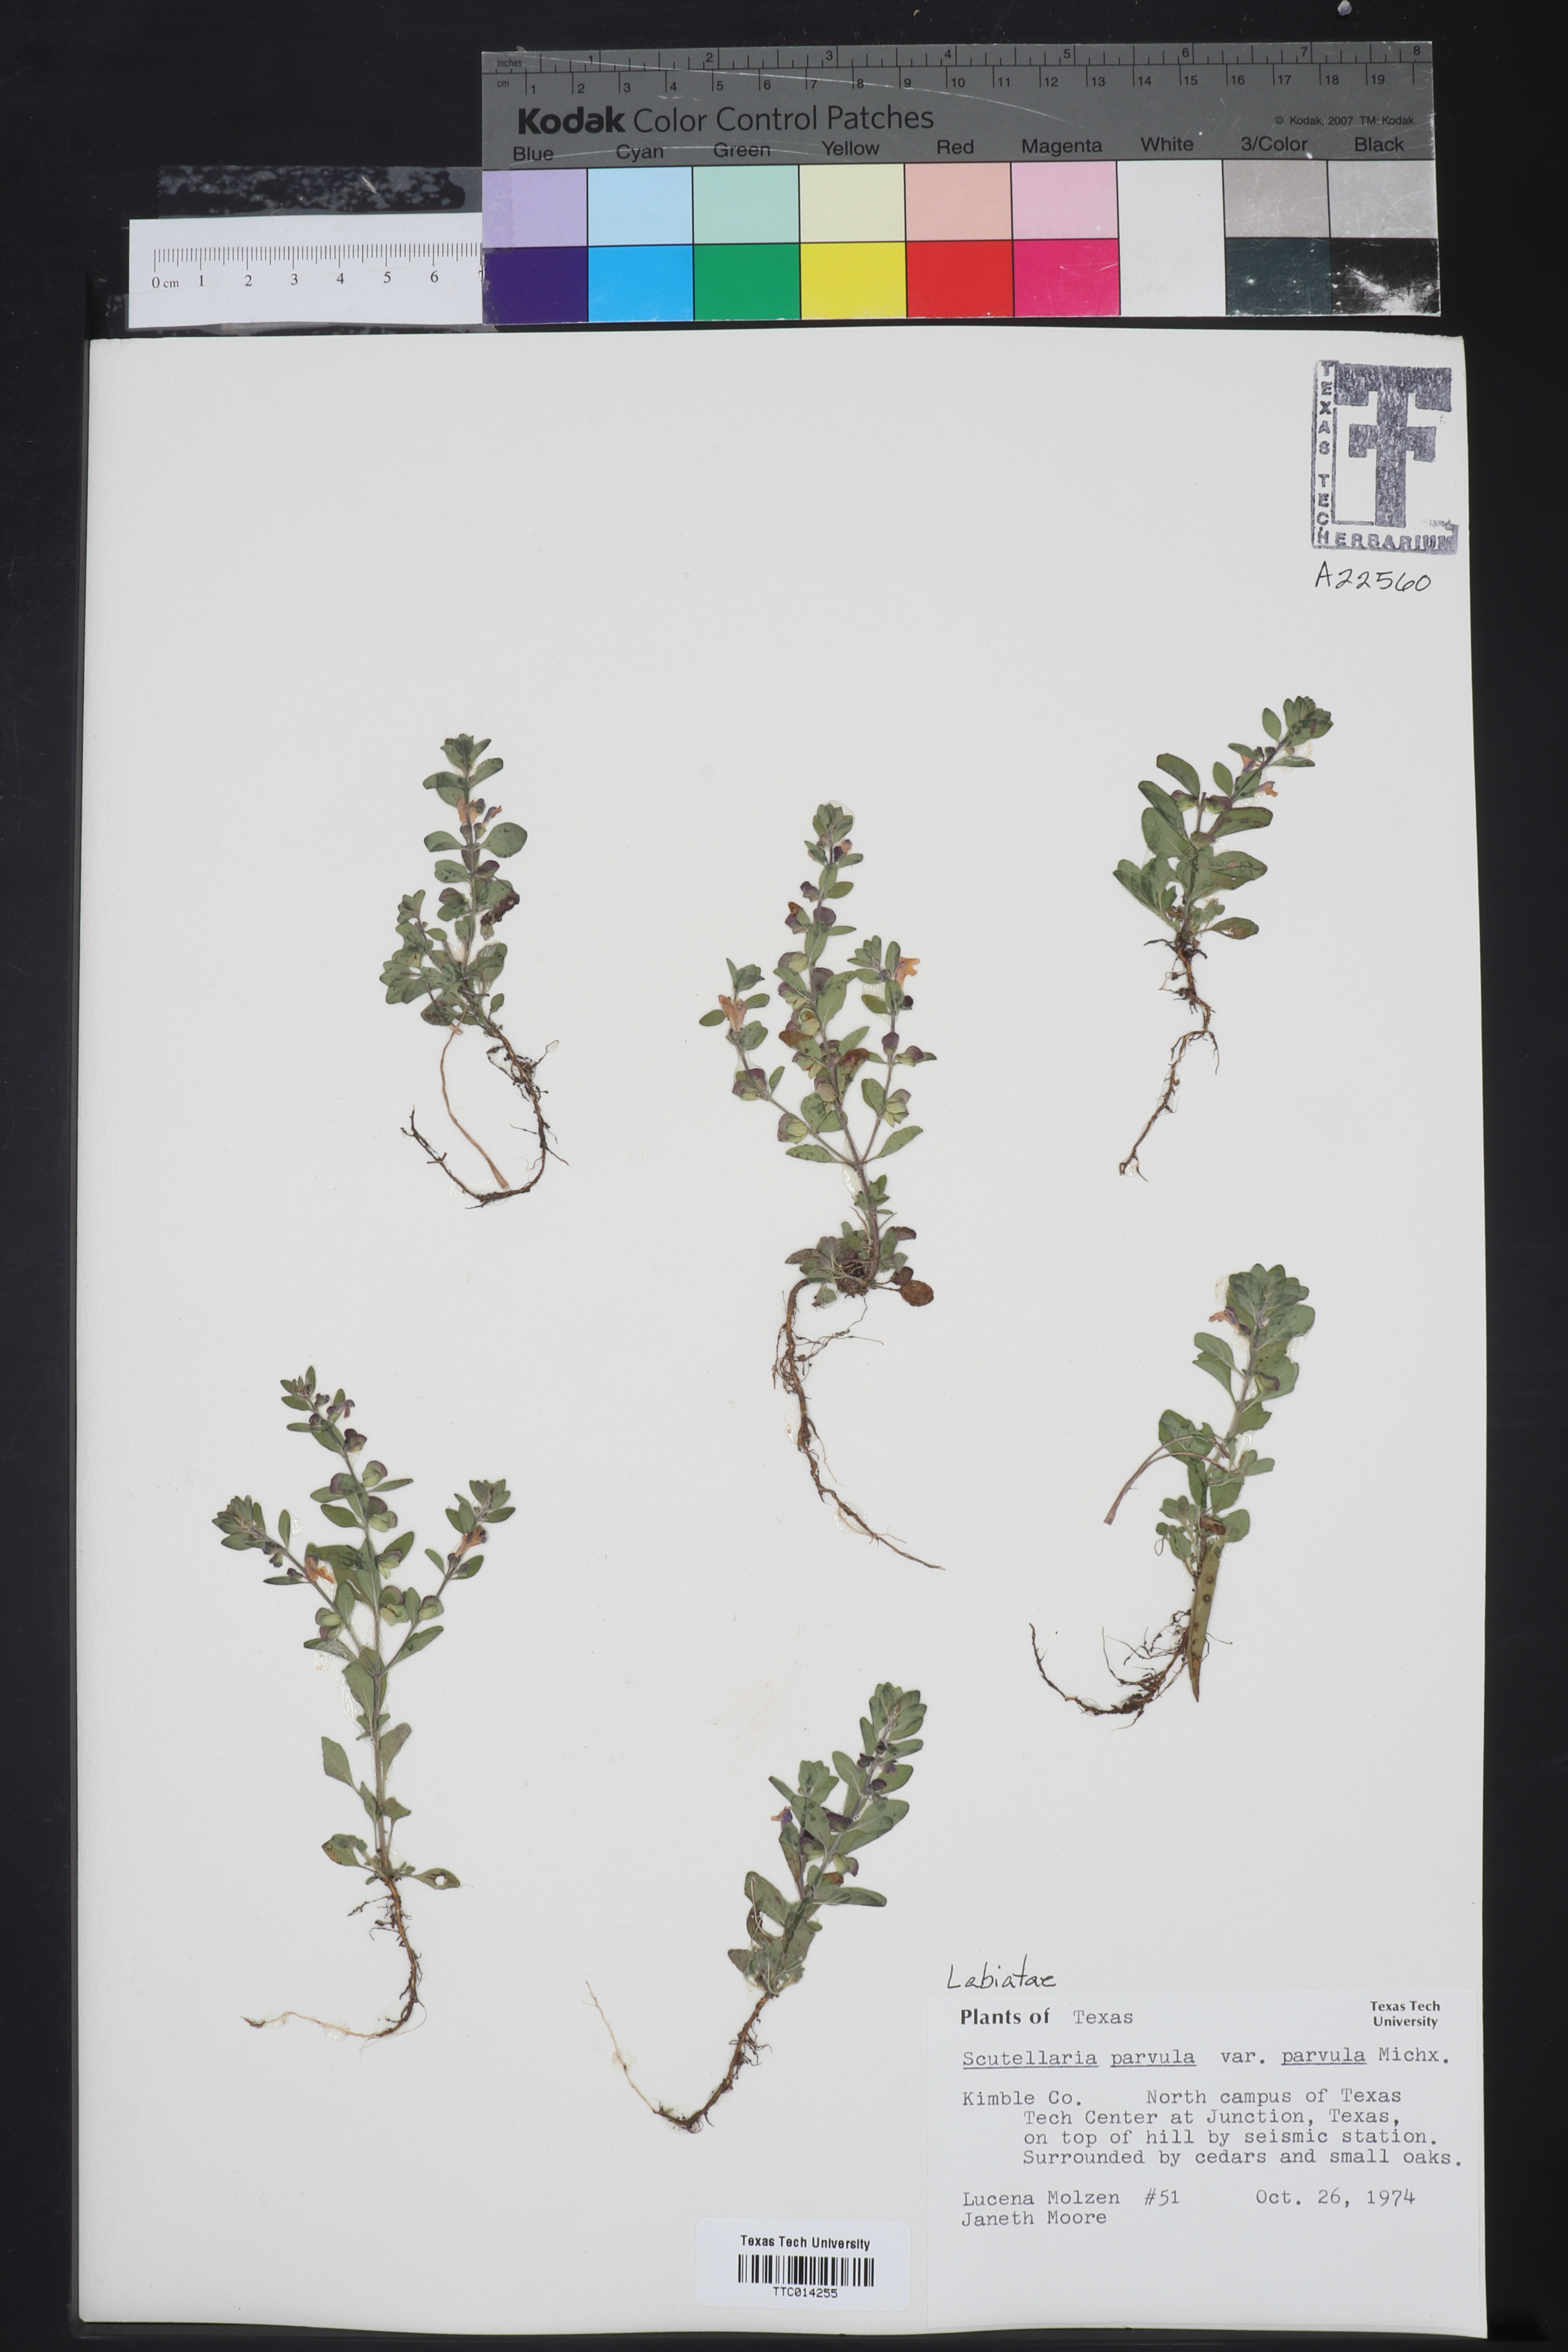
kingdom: Plantae
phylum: Tracheophyta
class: Magnoliopsida
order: Lamiales
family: Lamiaceae
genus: Scutellaria
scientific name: Scutellaria parvula
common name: Little scullcap
